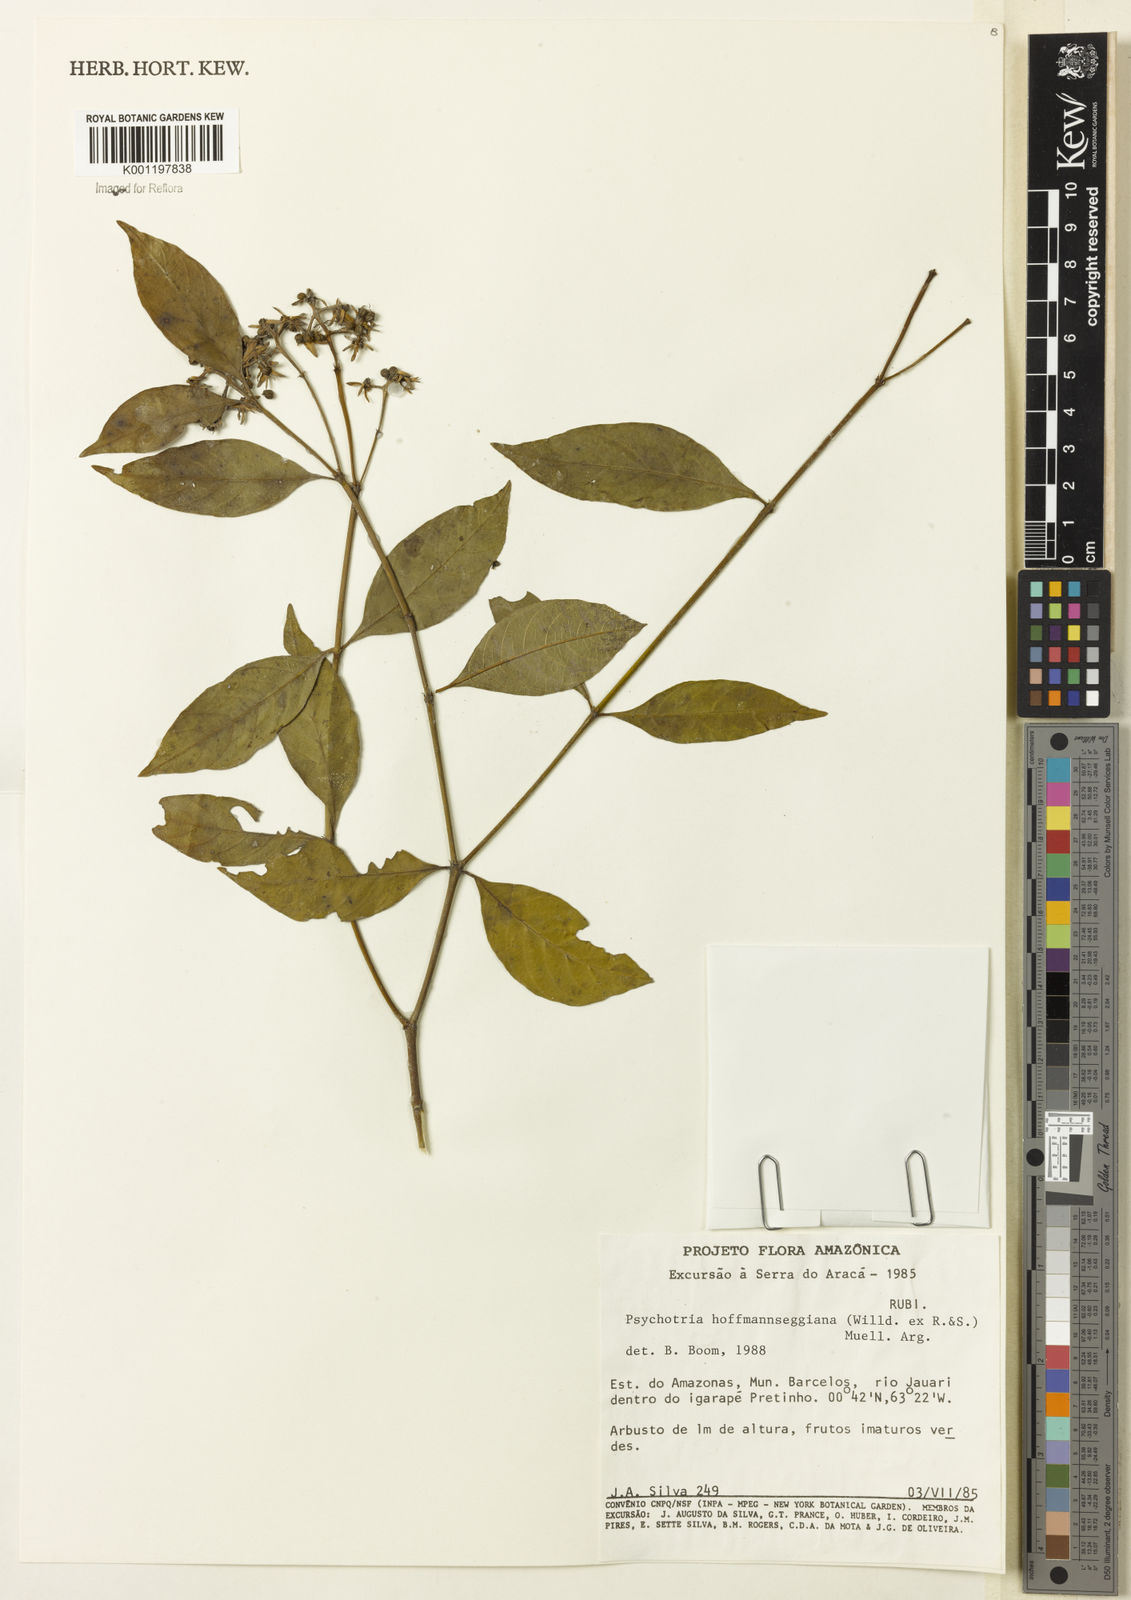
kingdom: Plantae
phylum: Tracheophyta
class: Magnoliopsida
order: Gentianales
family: Rubiaceae
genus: Psychotria
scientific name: Psychotria
